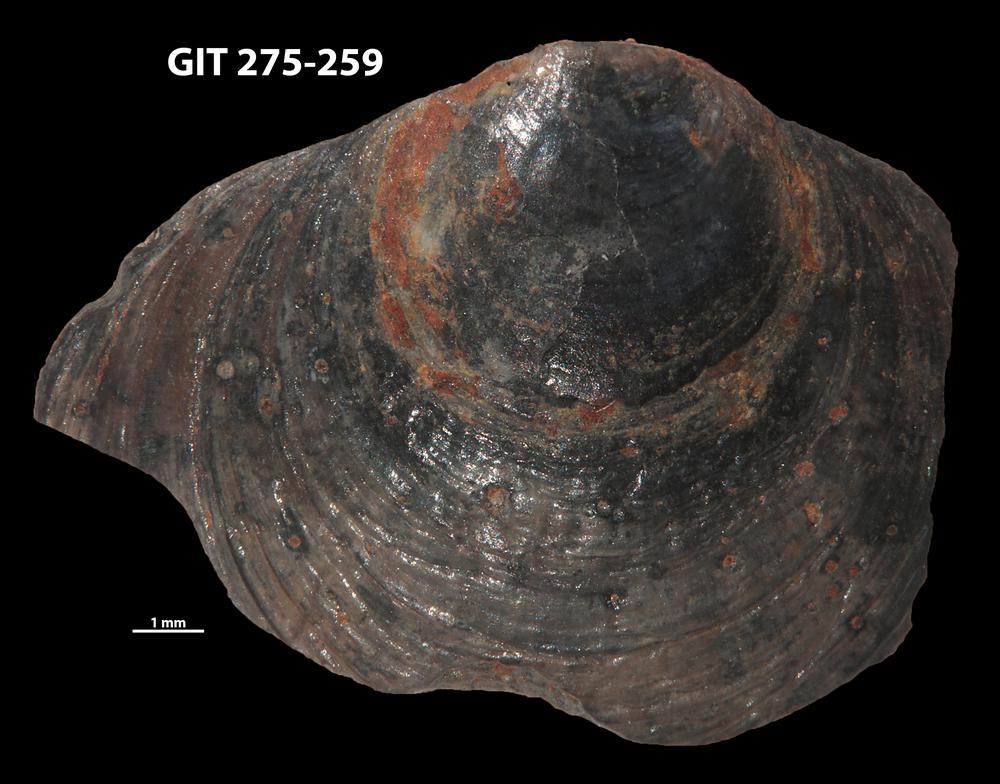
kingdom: Animalia
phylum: Porifera
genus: Ungula
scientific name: Ungula
